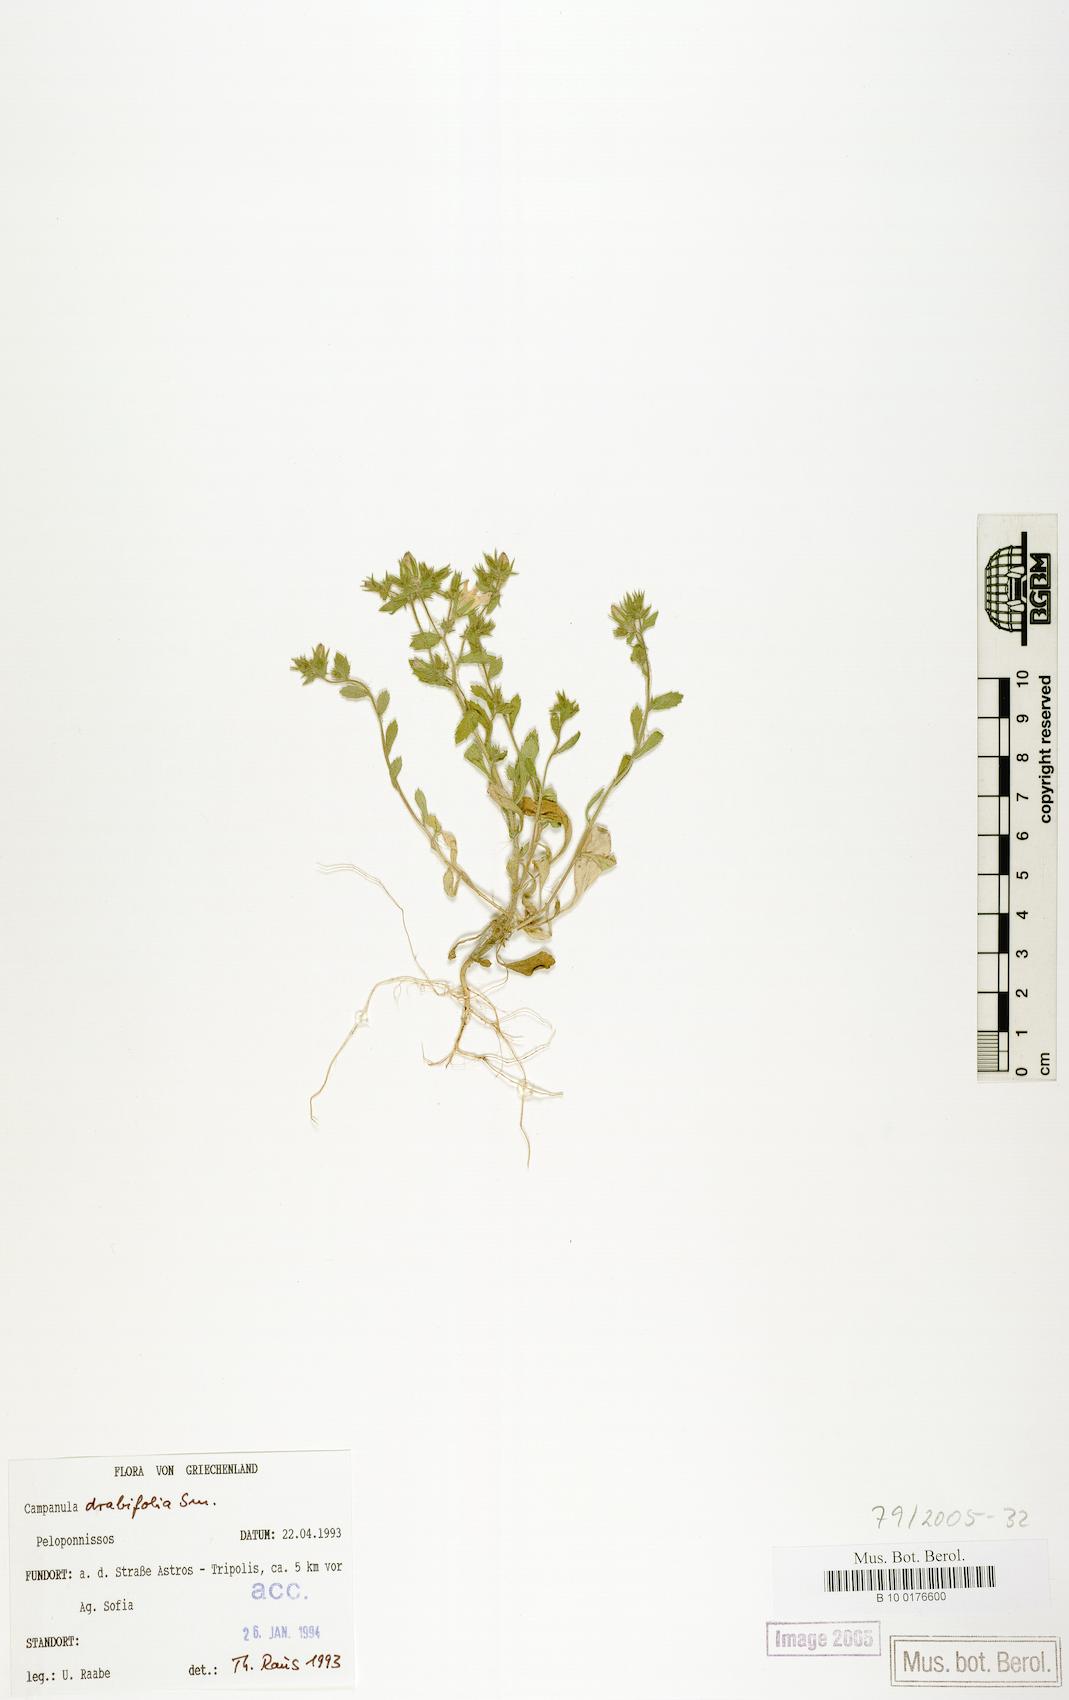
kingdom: Plantae
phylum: Tracheophyta
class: Magnoliopsida
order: Asterales
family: Campanulaceae
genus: Campanula
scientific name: Campanula drabifolia
